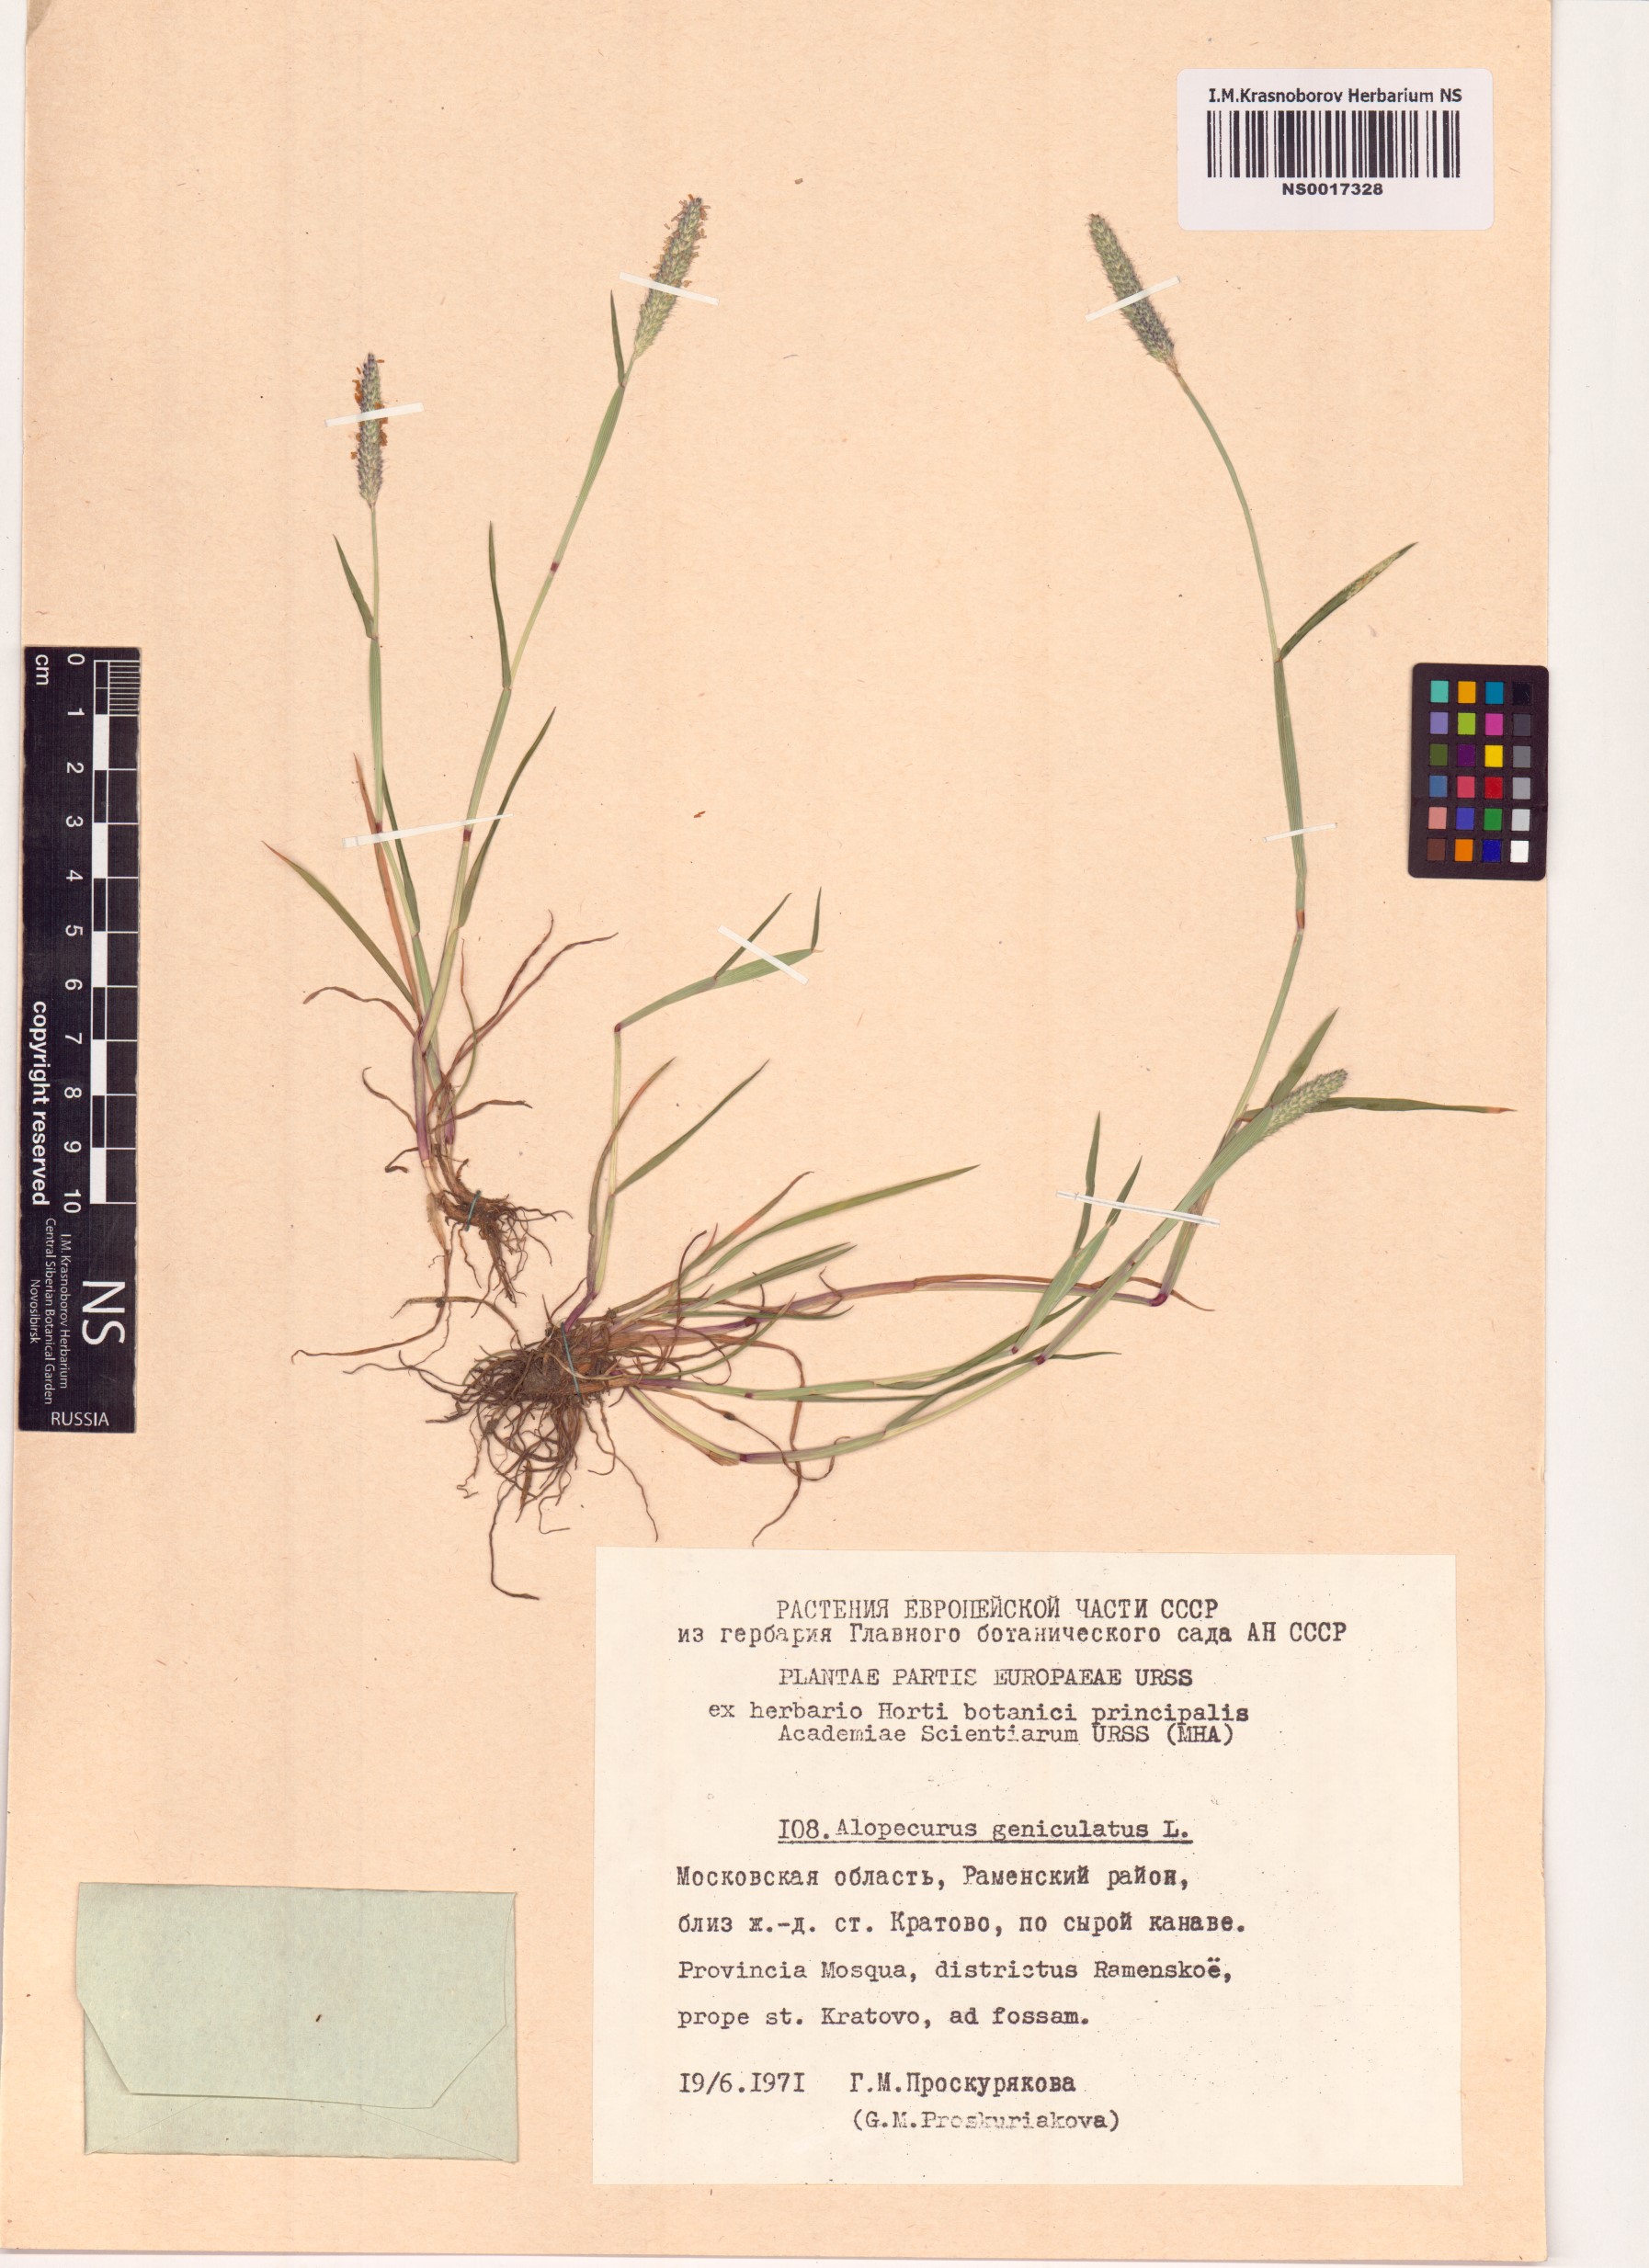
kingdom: Plantae
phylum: Tracheophyta
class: Liliopsida
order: Poales
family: Poaceae
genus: Alopecurus
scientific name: Alopecurus geniculatus
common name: Water foxtail
